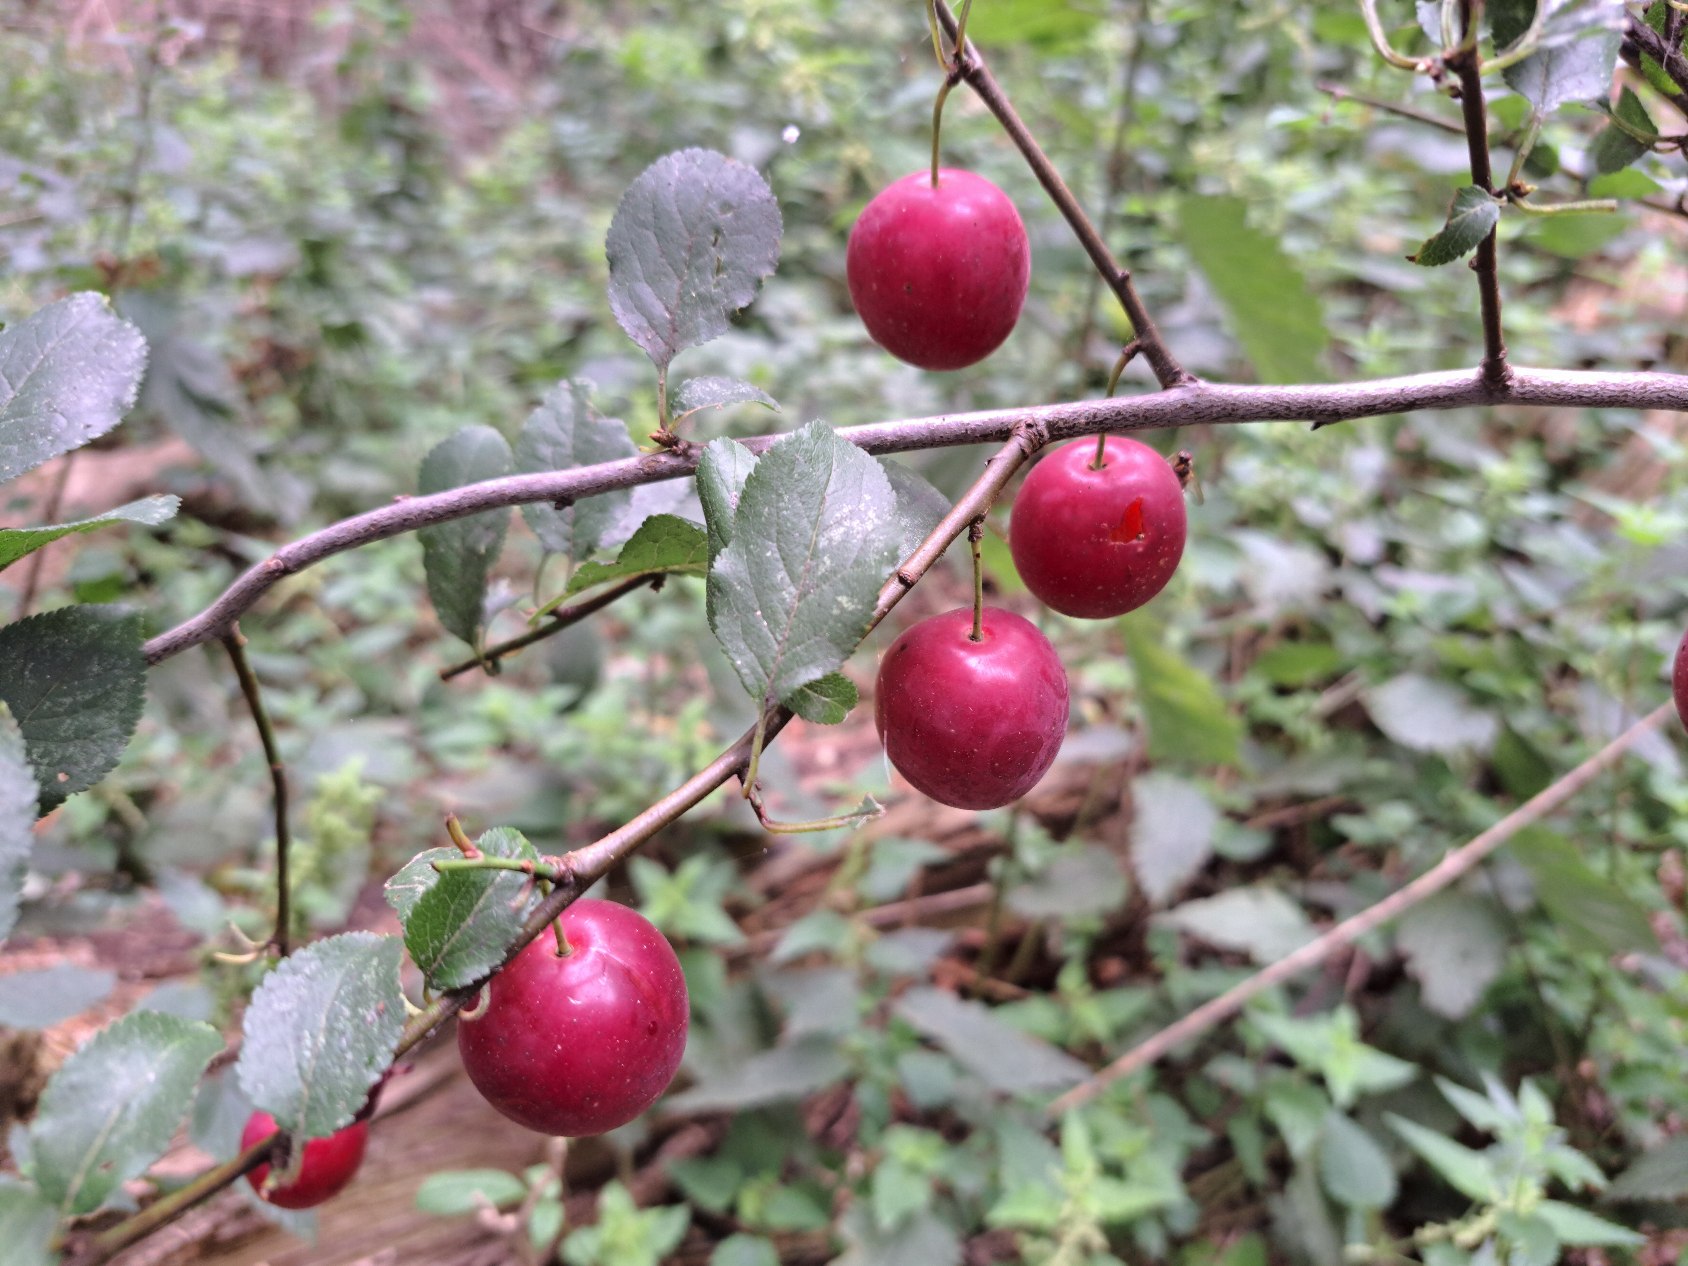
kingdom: Plantae
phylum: Tracheophyta
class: Magnoliopsida
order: Rosales
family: Rosaceae
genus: Prunus
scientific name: Prunus cerasifera
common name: Mirabel
